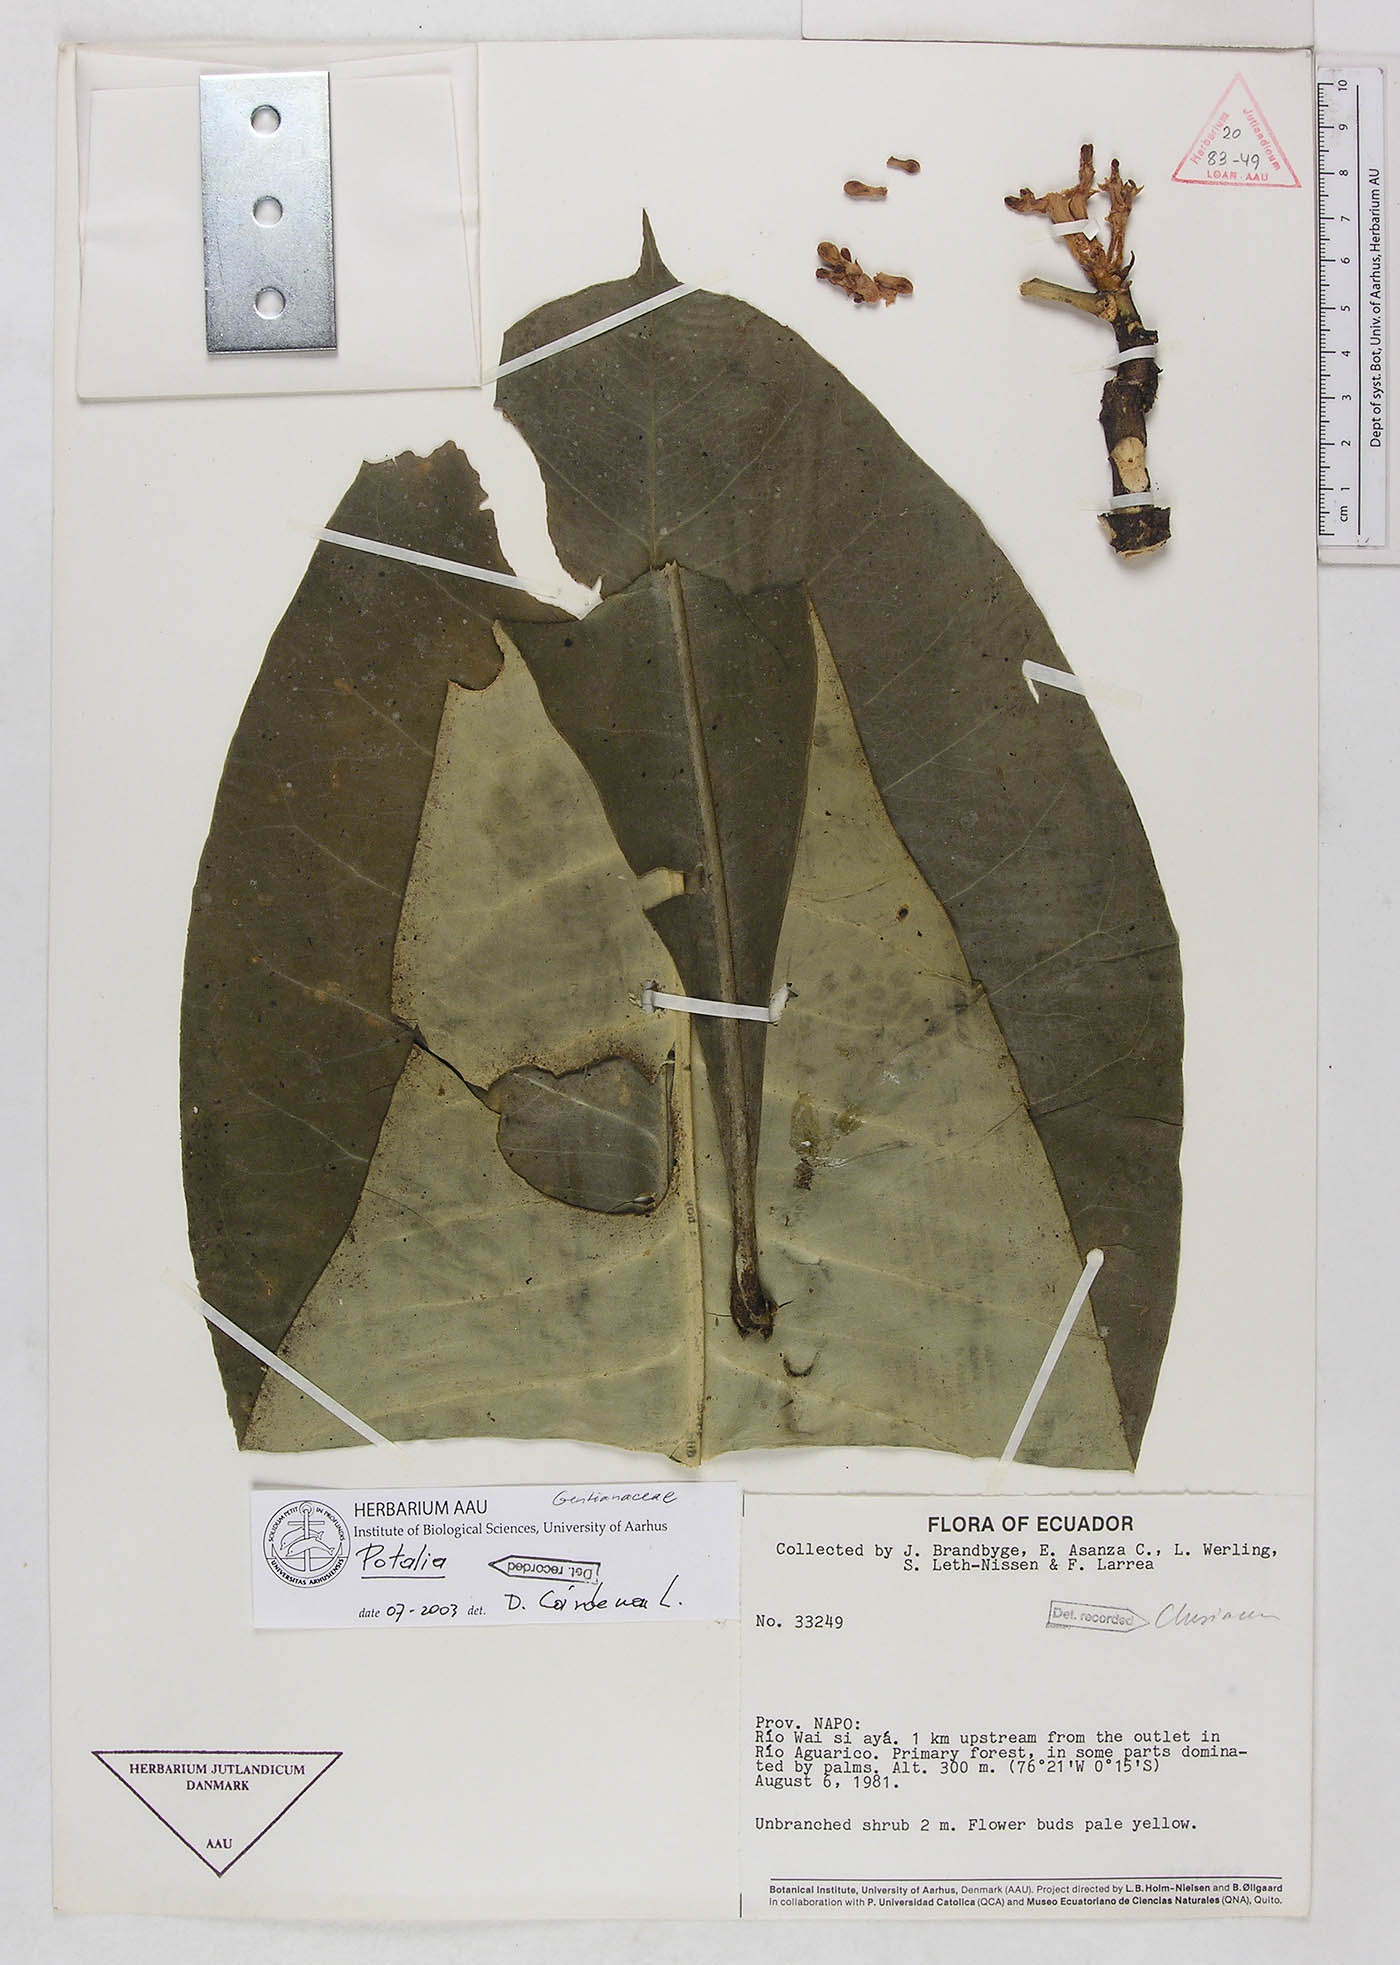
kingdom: Plantae
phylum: Tracheophyta
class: Magnoliopsida
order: Gentianales
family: Gentianaceae
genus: Potalia
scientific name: Potalia
